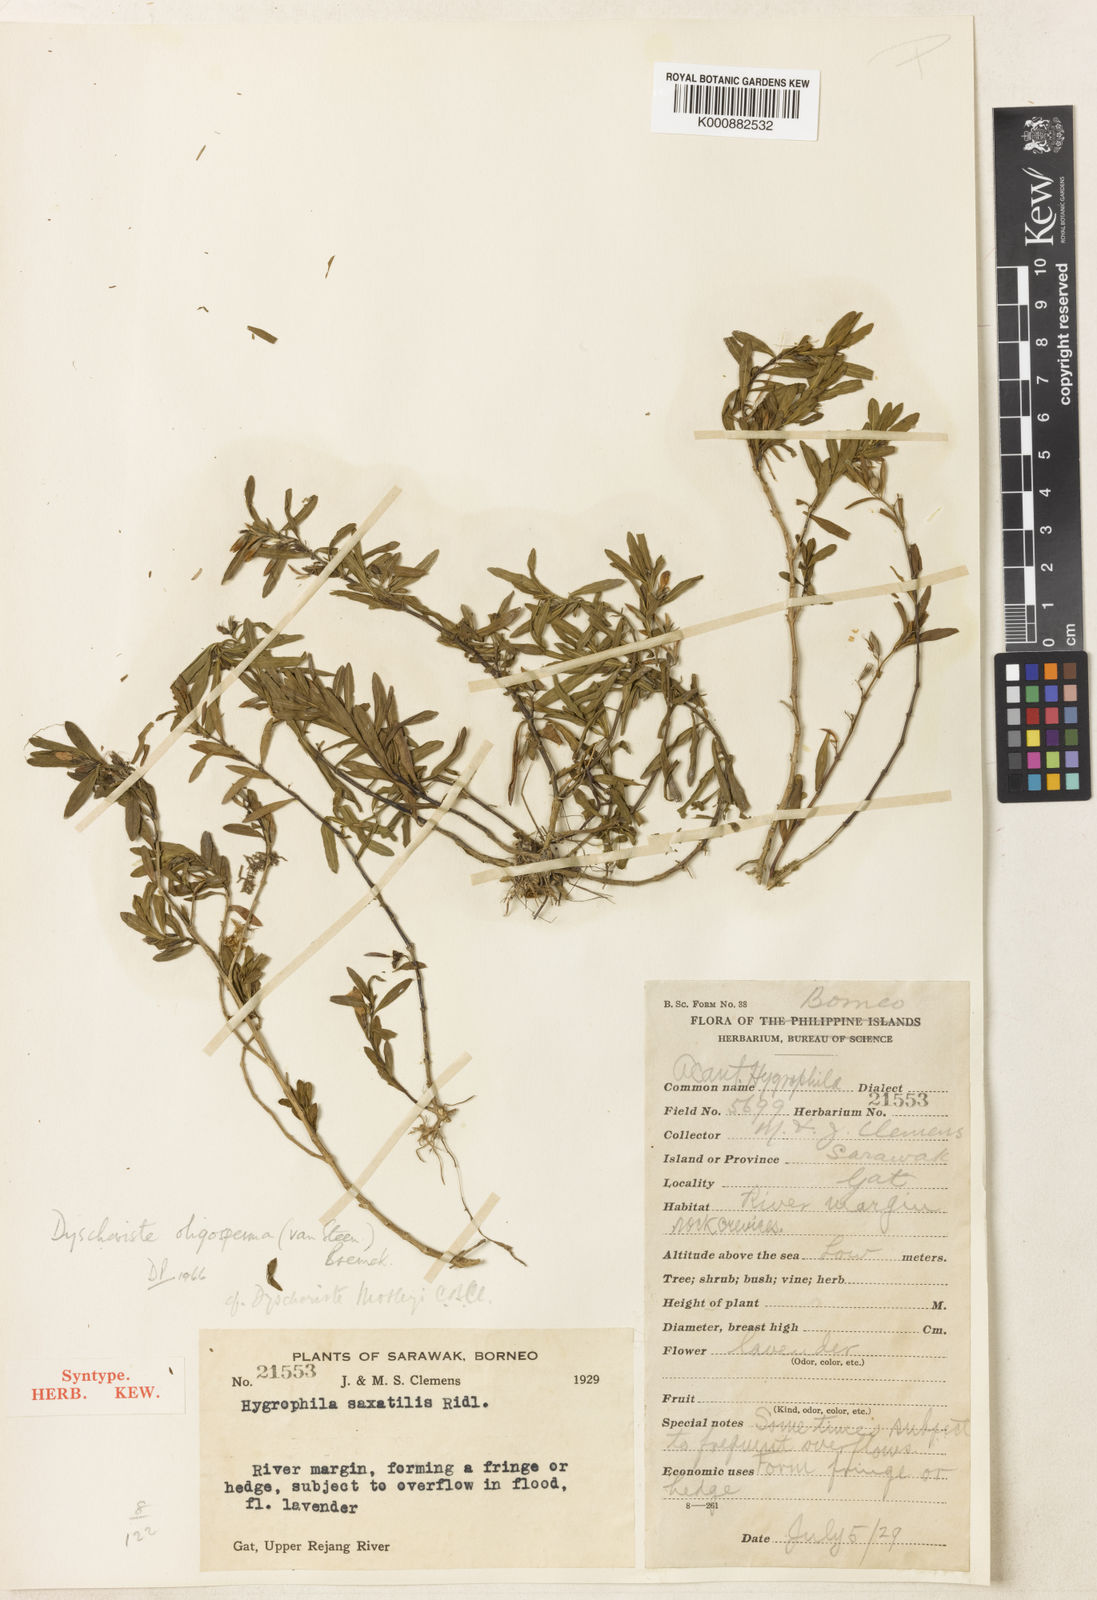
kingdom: Plantae
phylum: Tracheophyta
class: Magnoliopsida
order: Lamiales
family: Acanthaceae
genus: Dyschoriste
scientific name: Dyschoriste oligosperma
